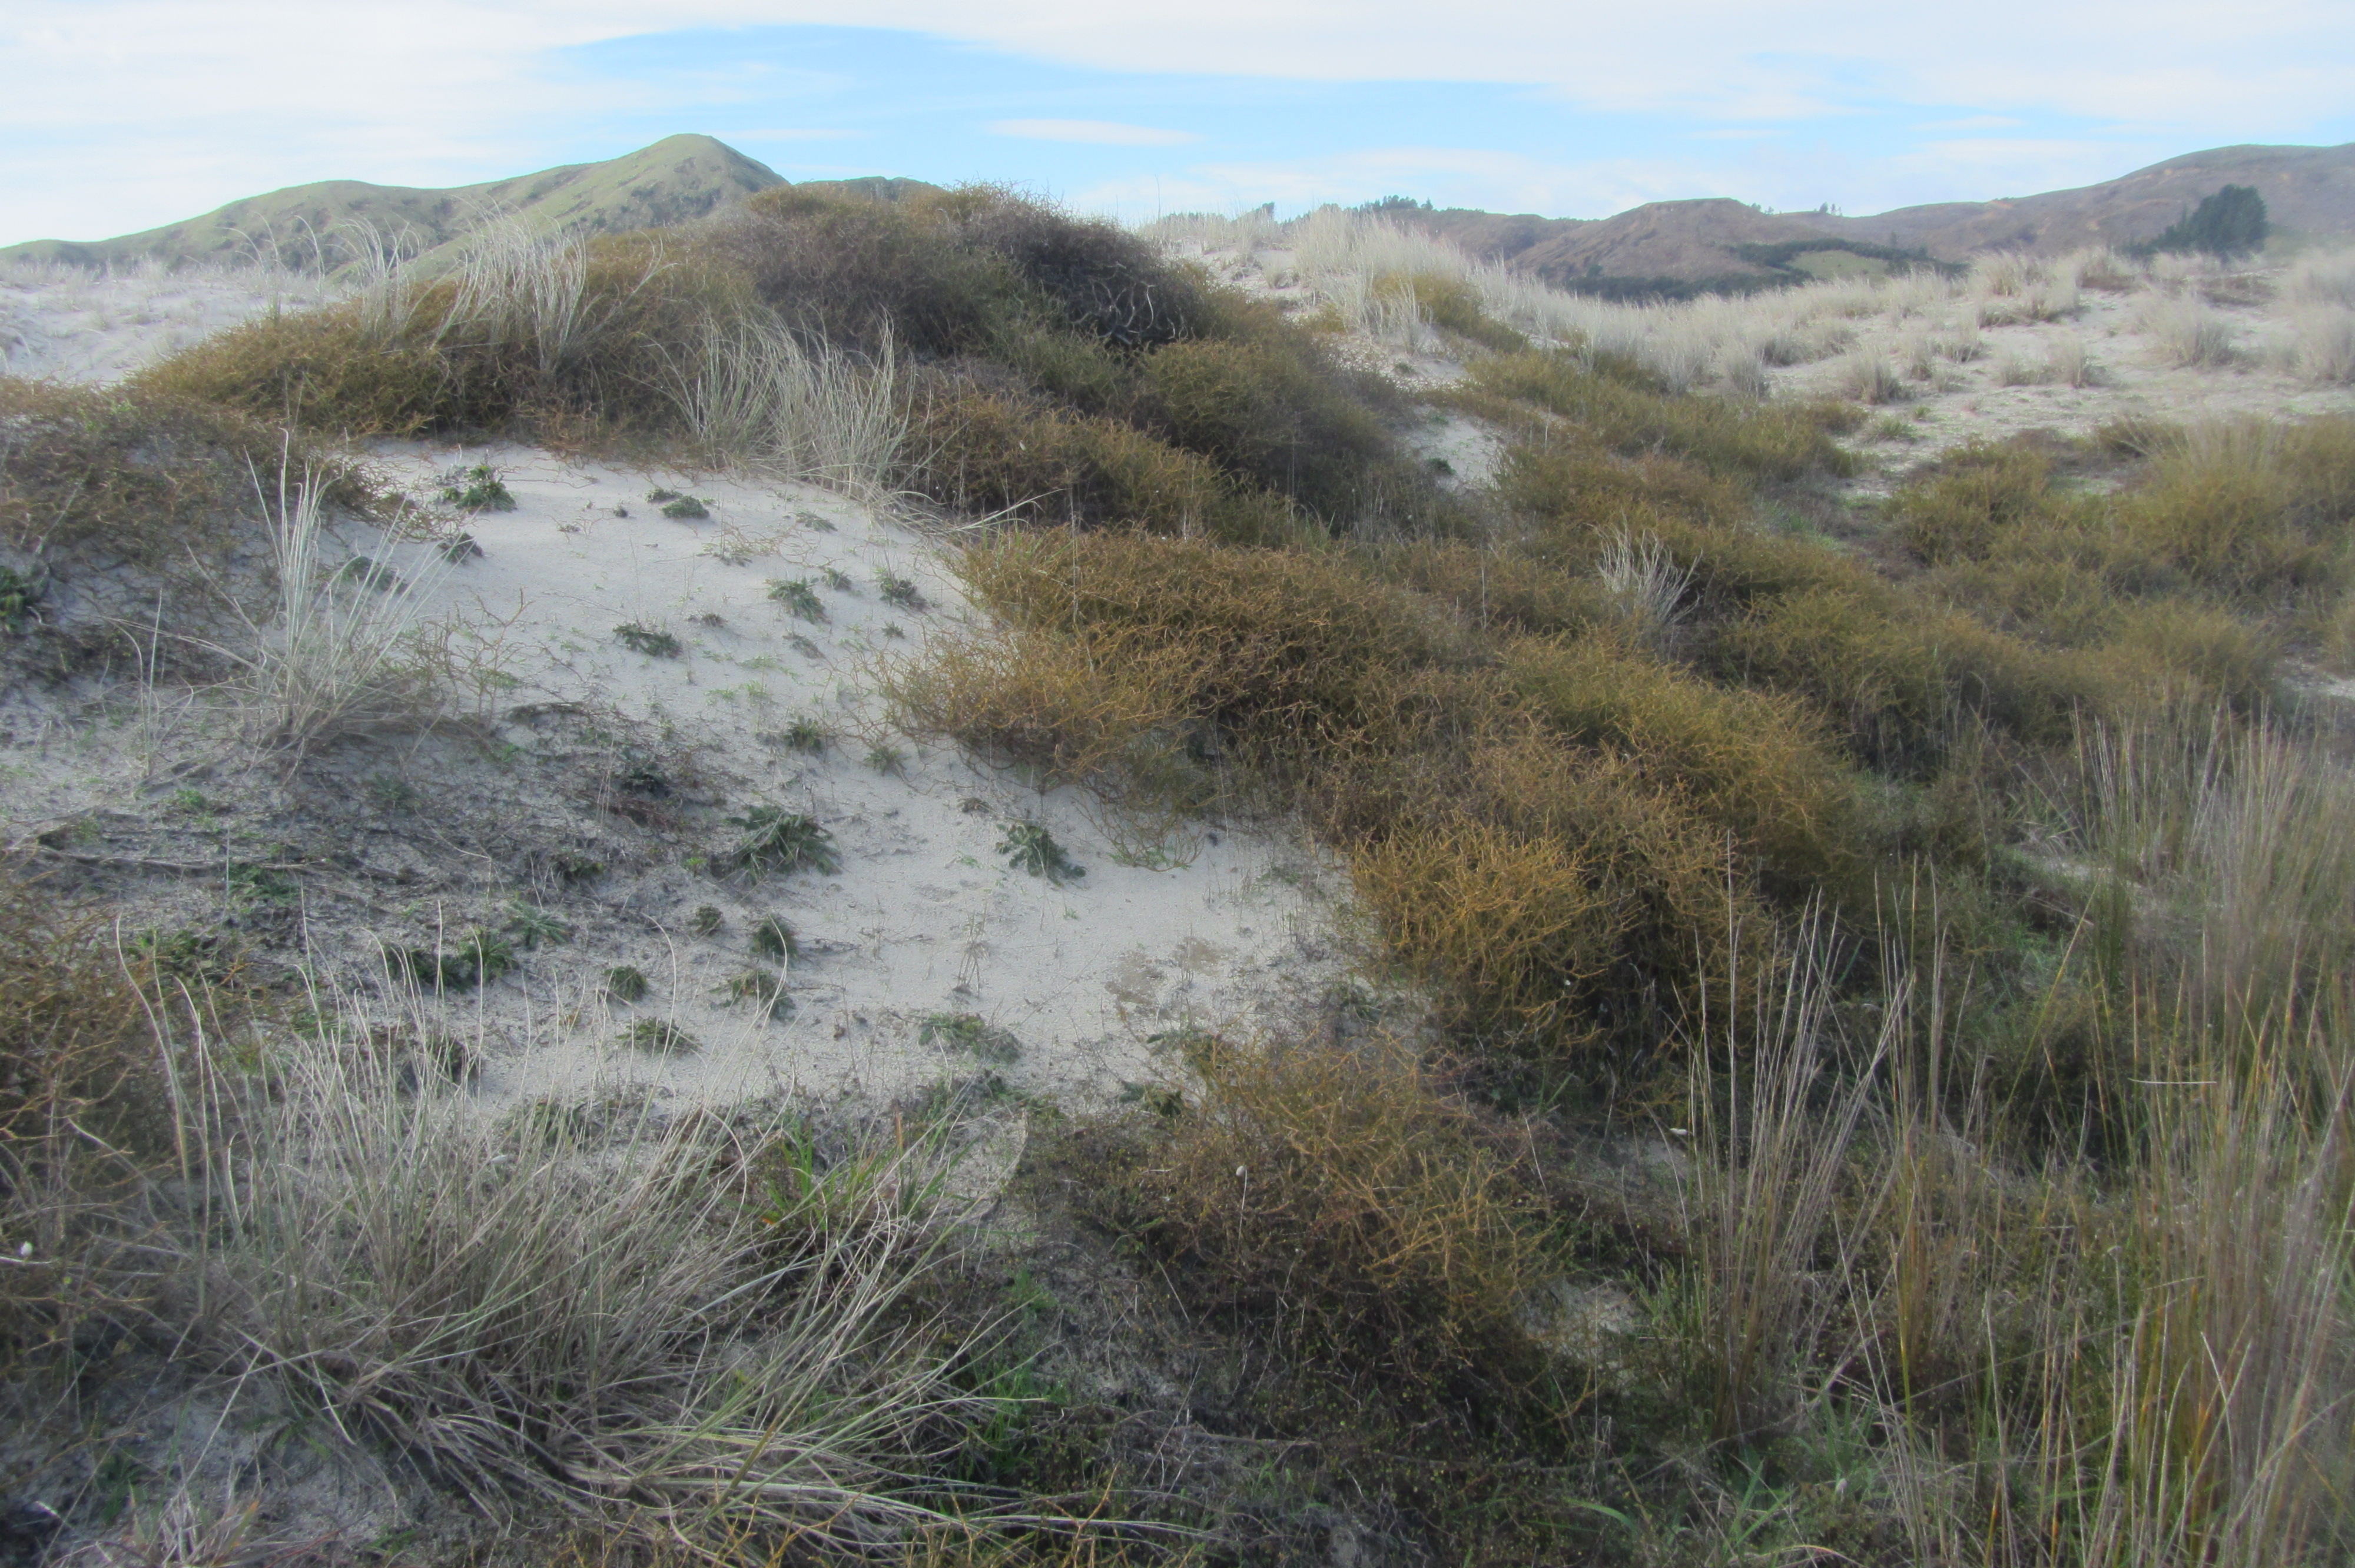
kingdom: Plantae
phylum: Tracheophyta
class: Magnoliopsida
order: Gentianales
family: Rubiaceae
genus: Coprosma
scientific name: Coprosma acerosa
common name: Sand coprosma
